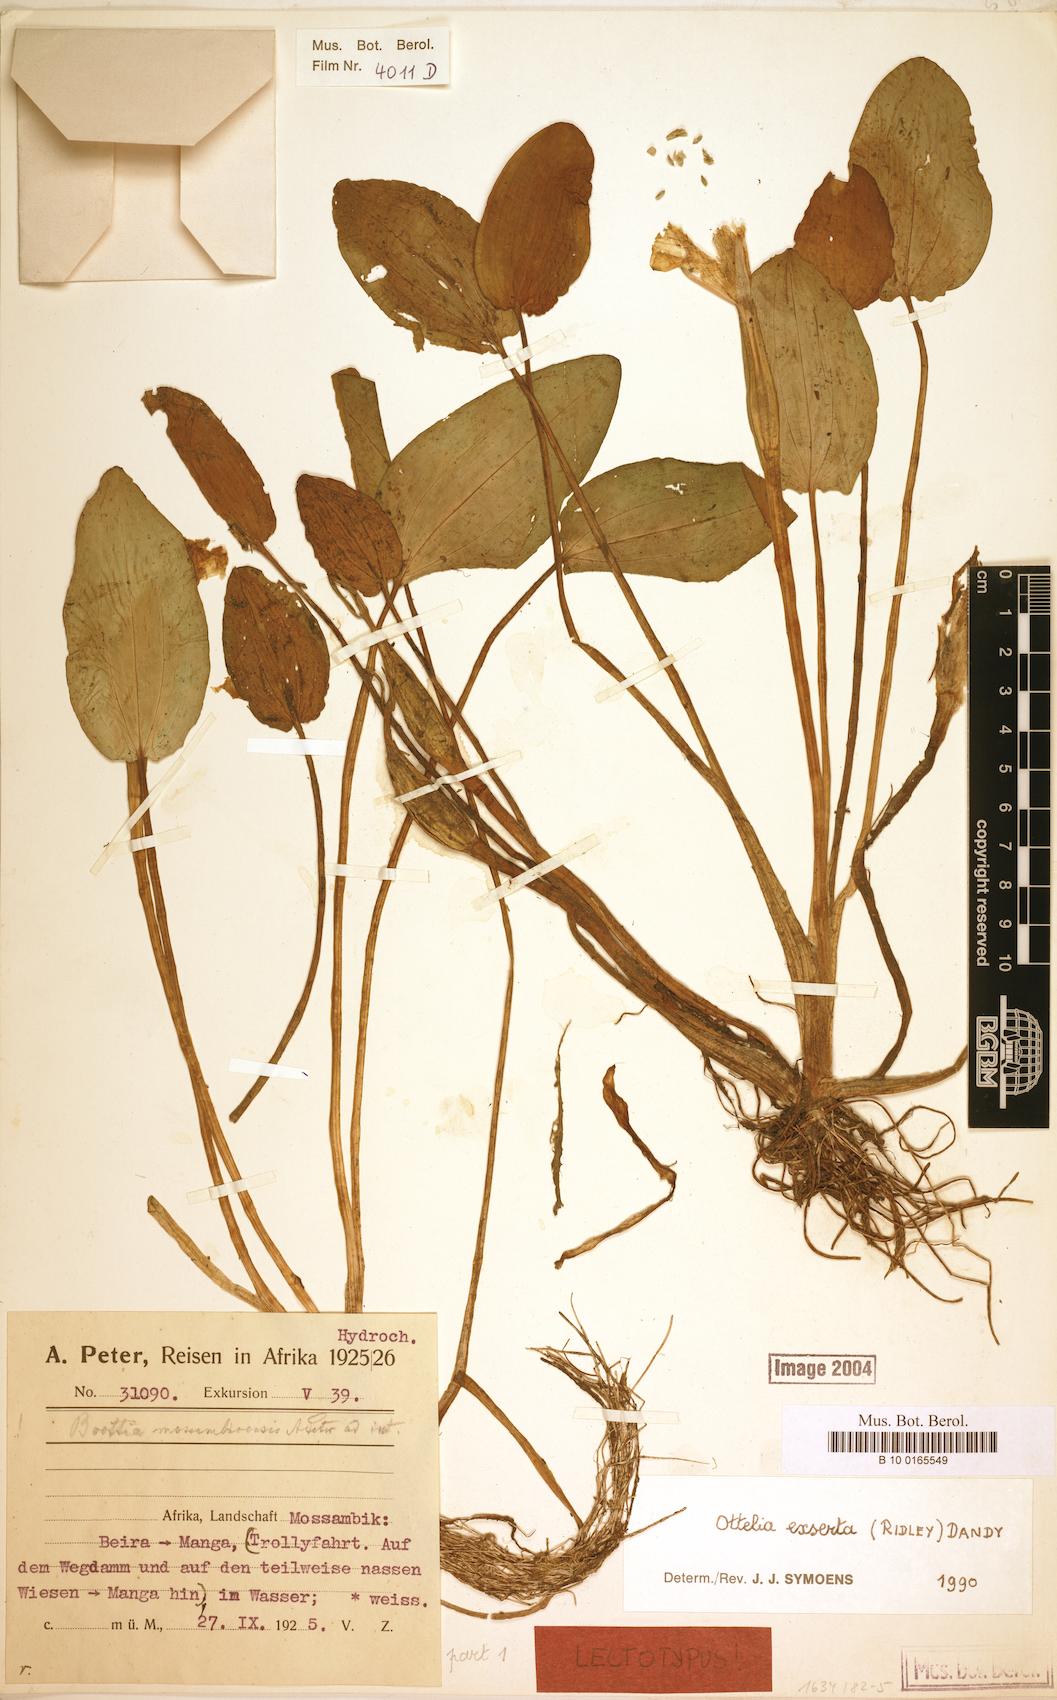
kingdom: Plantae
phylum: Tracheophyta
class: Liliopsida
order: Alismatales
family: Hydrocharitaceae
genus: Ottelia
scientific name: Ottelia exserta
